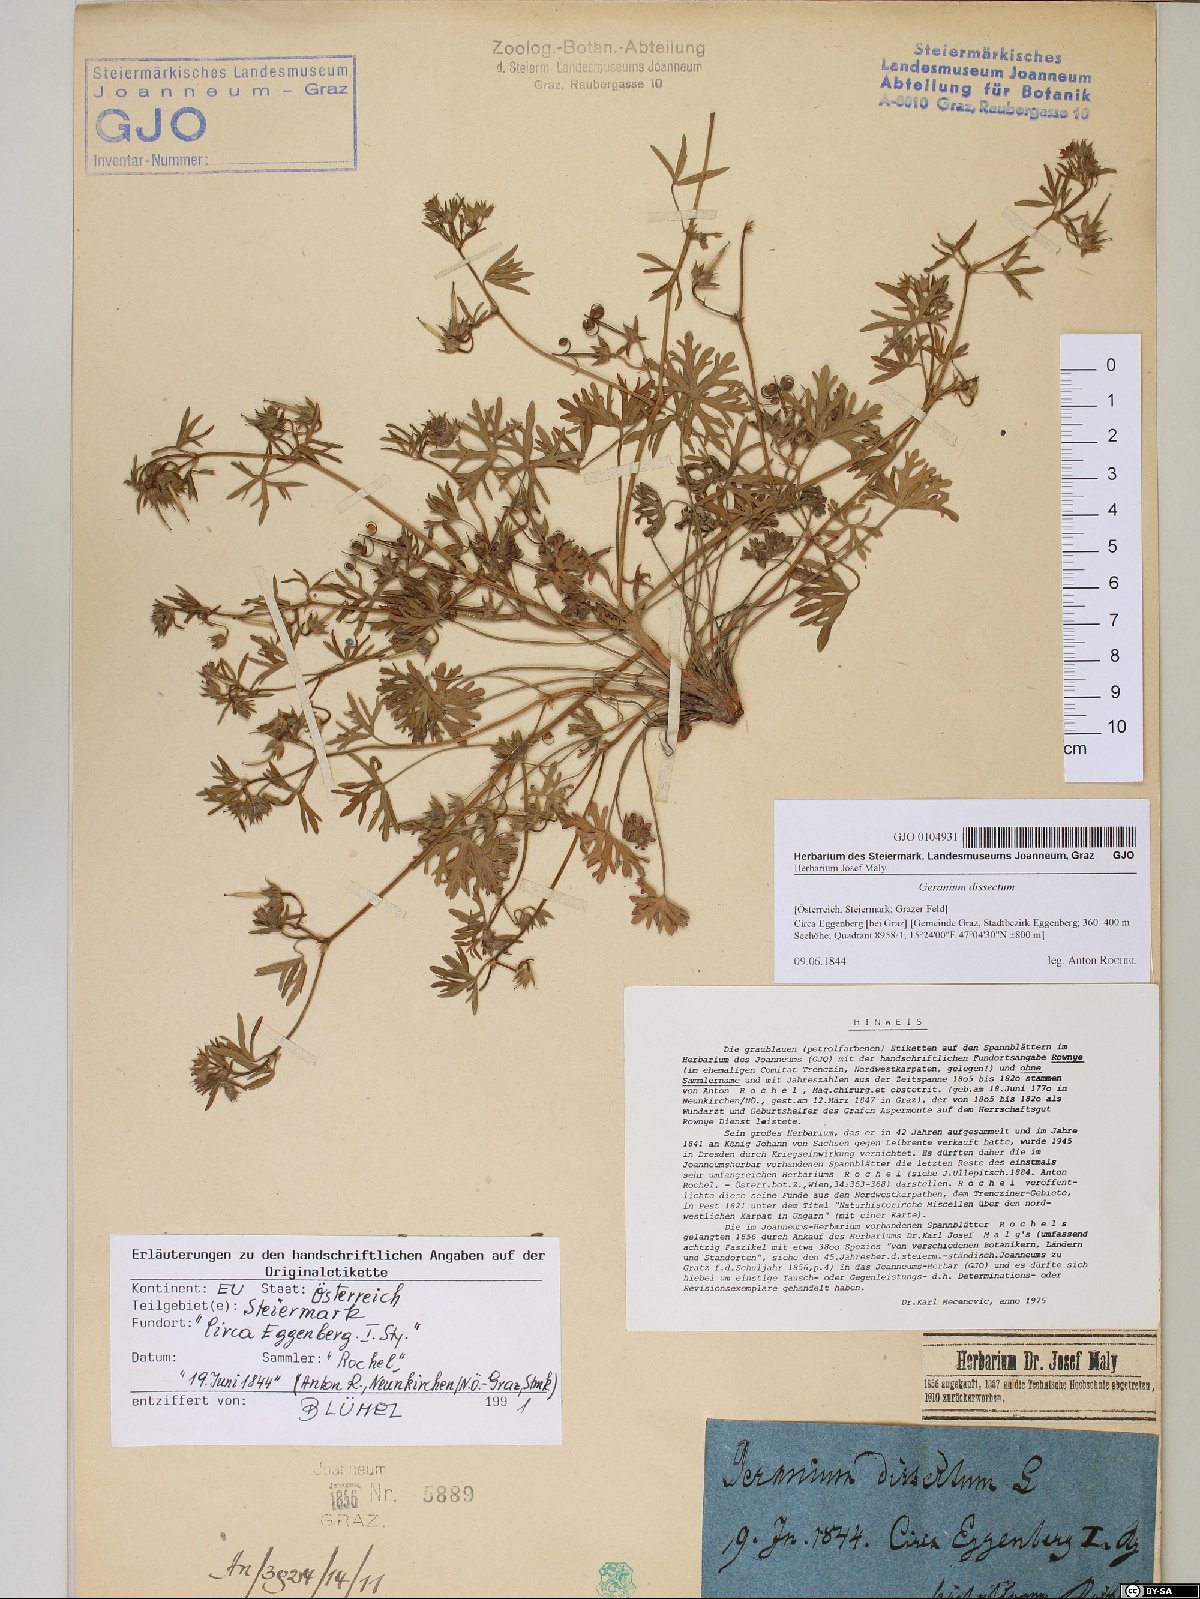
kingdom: Plantae
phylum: Tracheophyta
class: Magnoliopsida
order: Geraniales
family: Geraniaceae
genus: Geranium
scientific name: Geranium dissectum
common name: Cut-leaved crane's-bill
